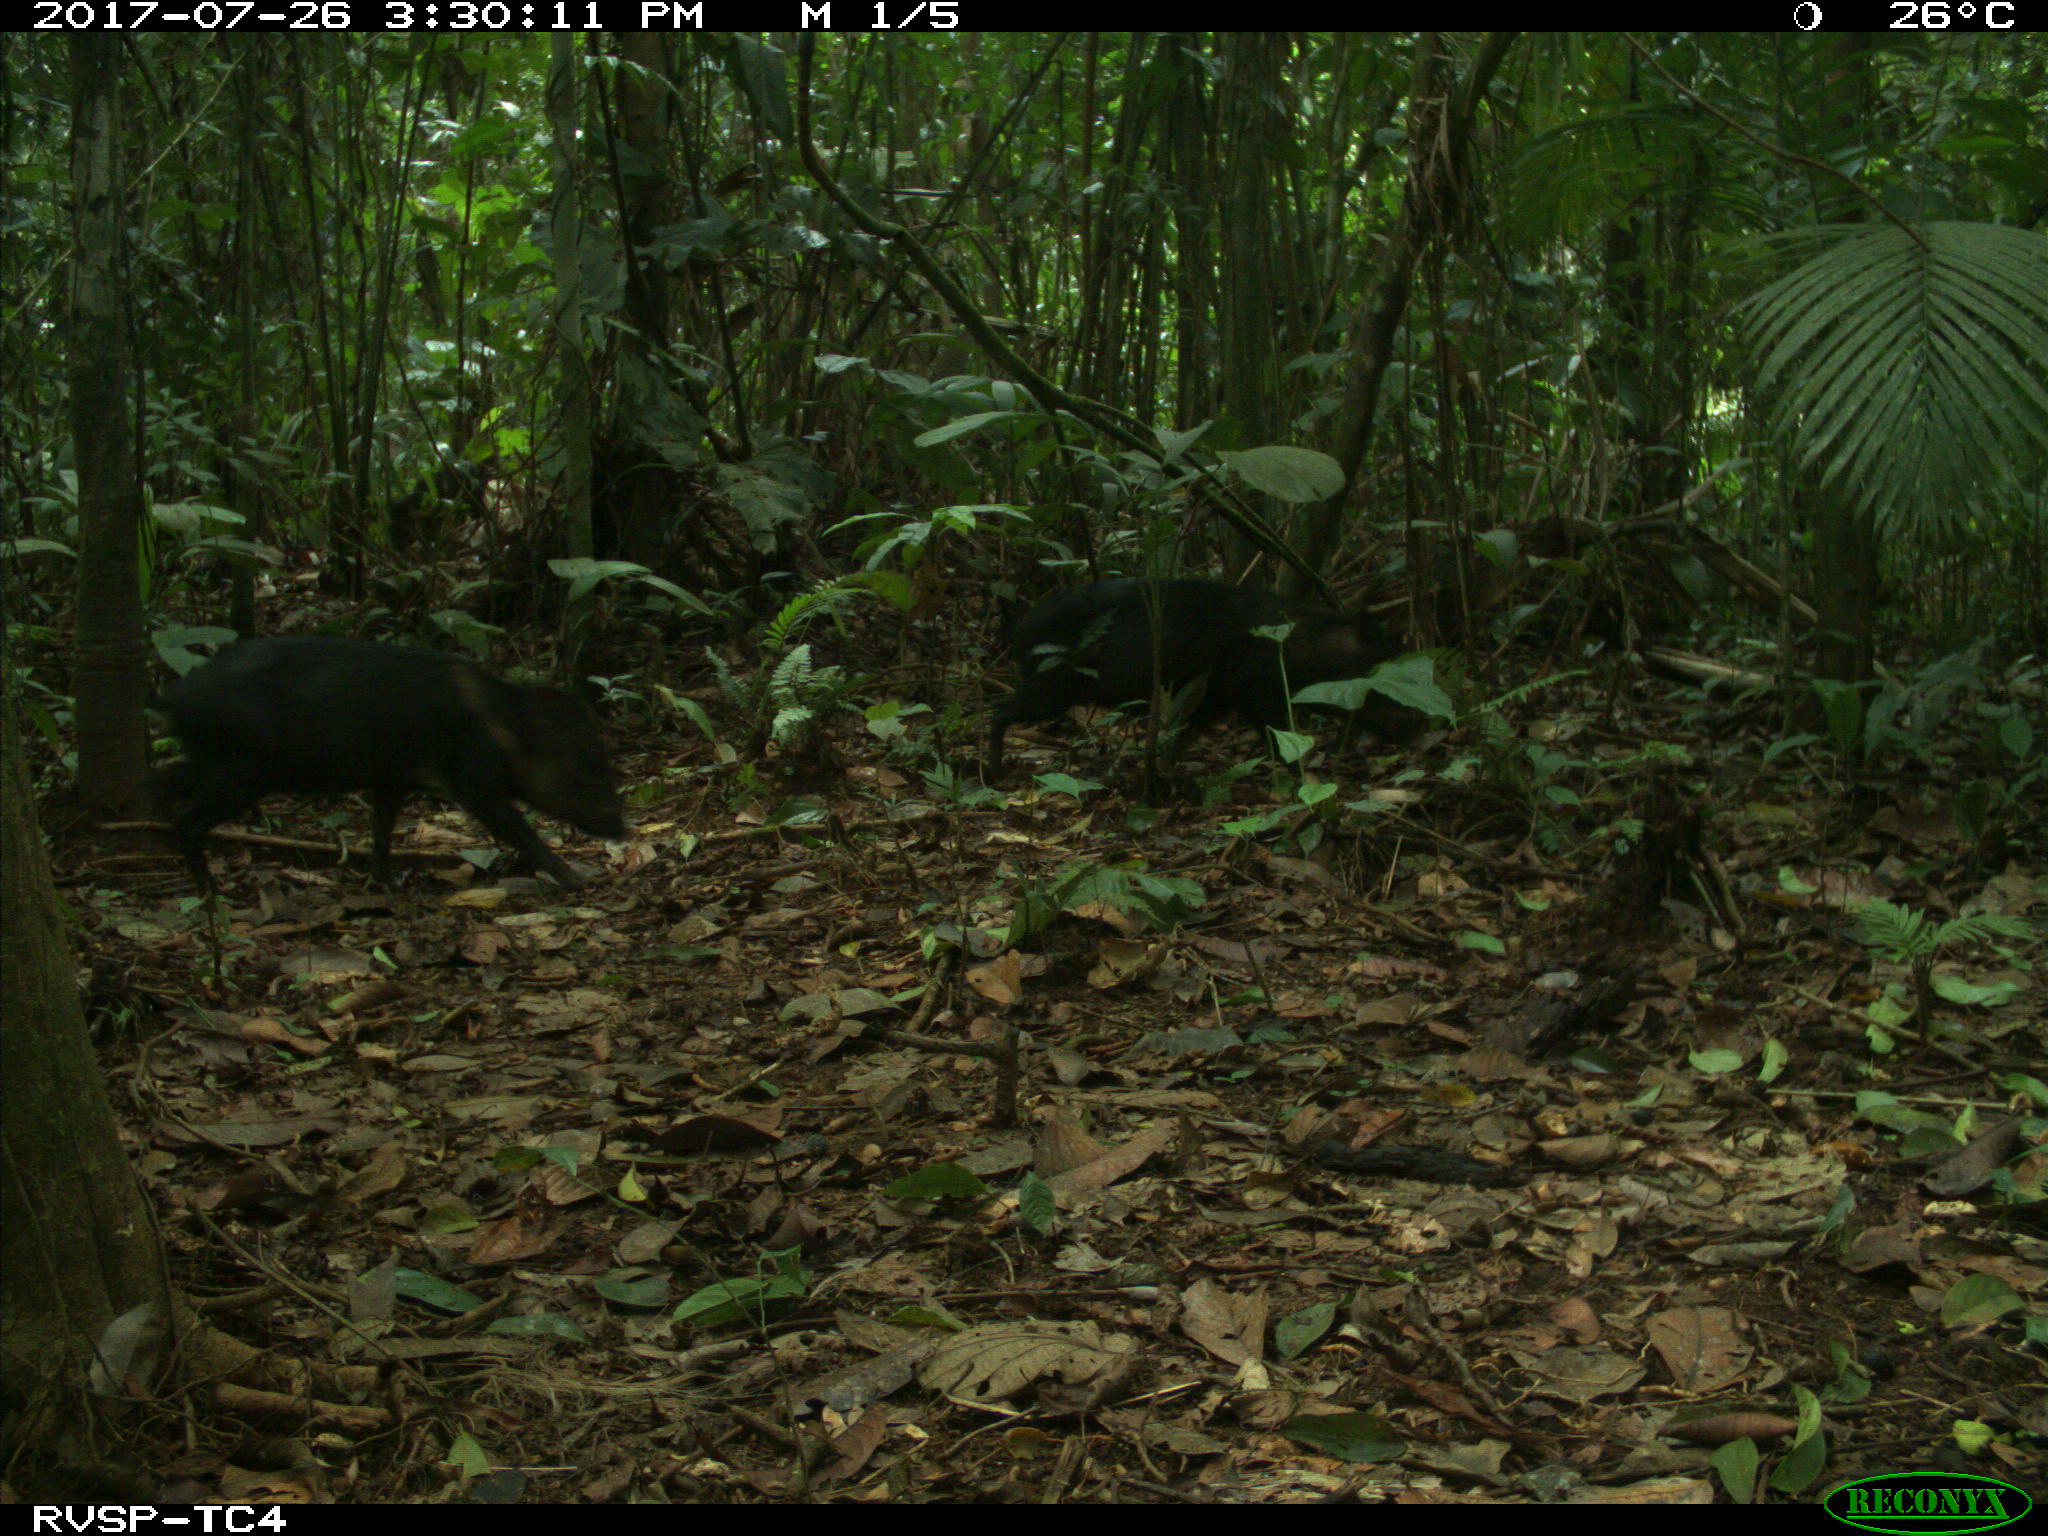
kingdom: Animalia
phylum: Chordata
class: Mammalia
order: Artiodactyla
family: Tayassuidae
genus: Pecari
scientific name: Pecari tajacu
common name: Collared peccary
